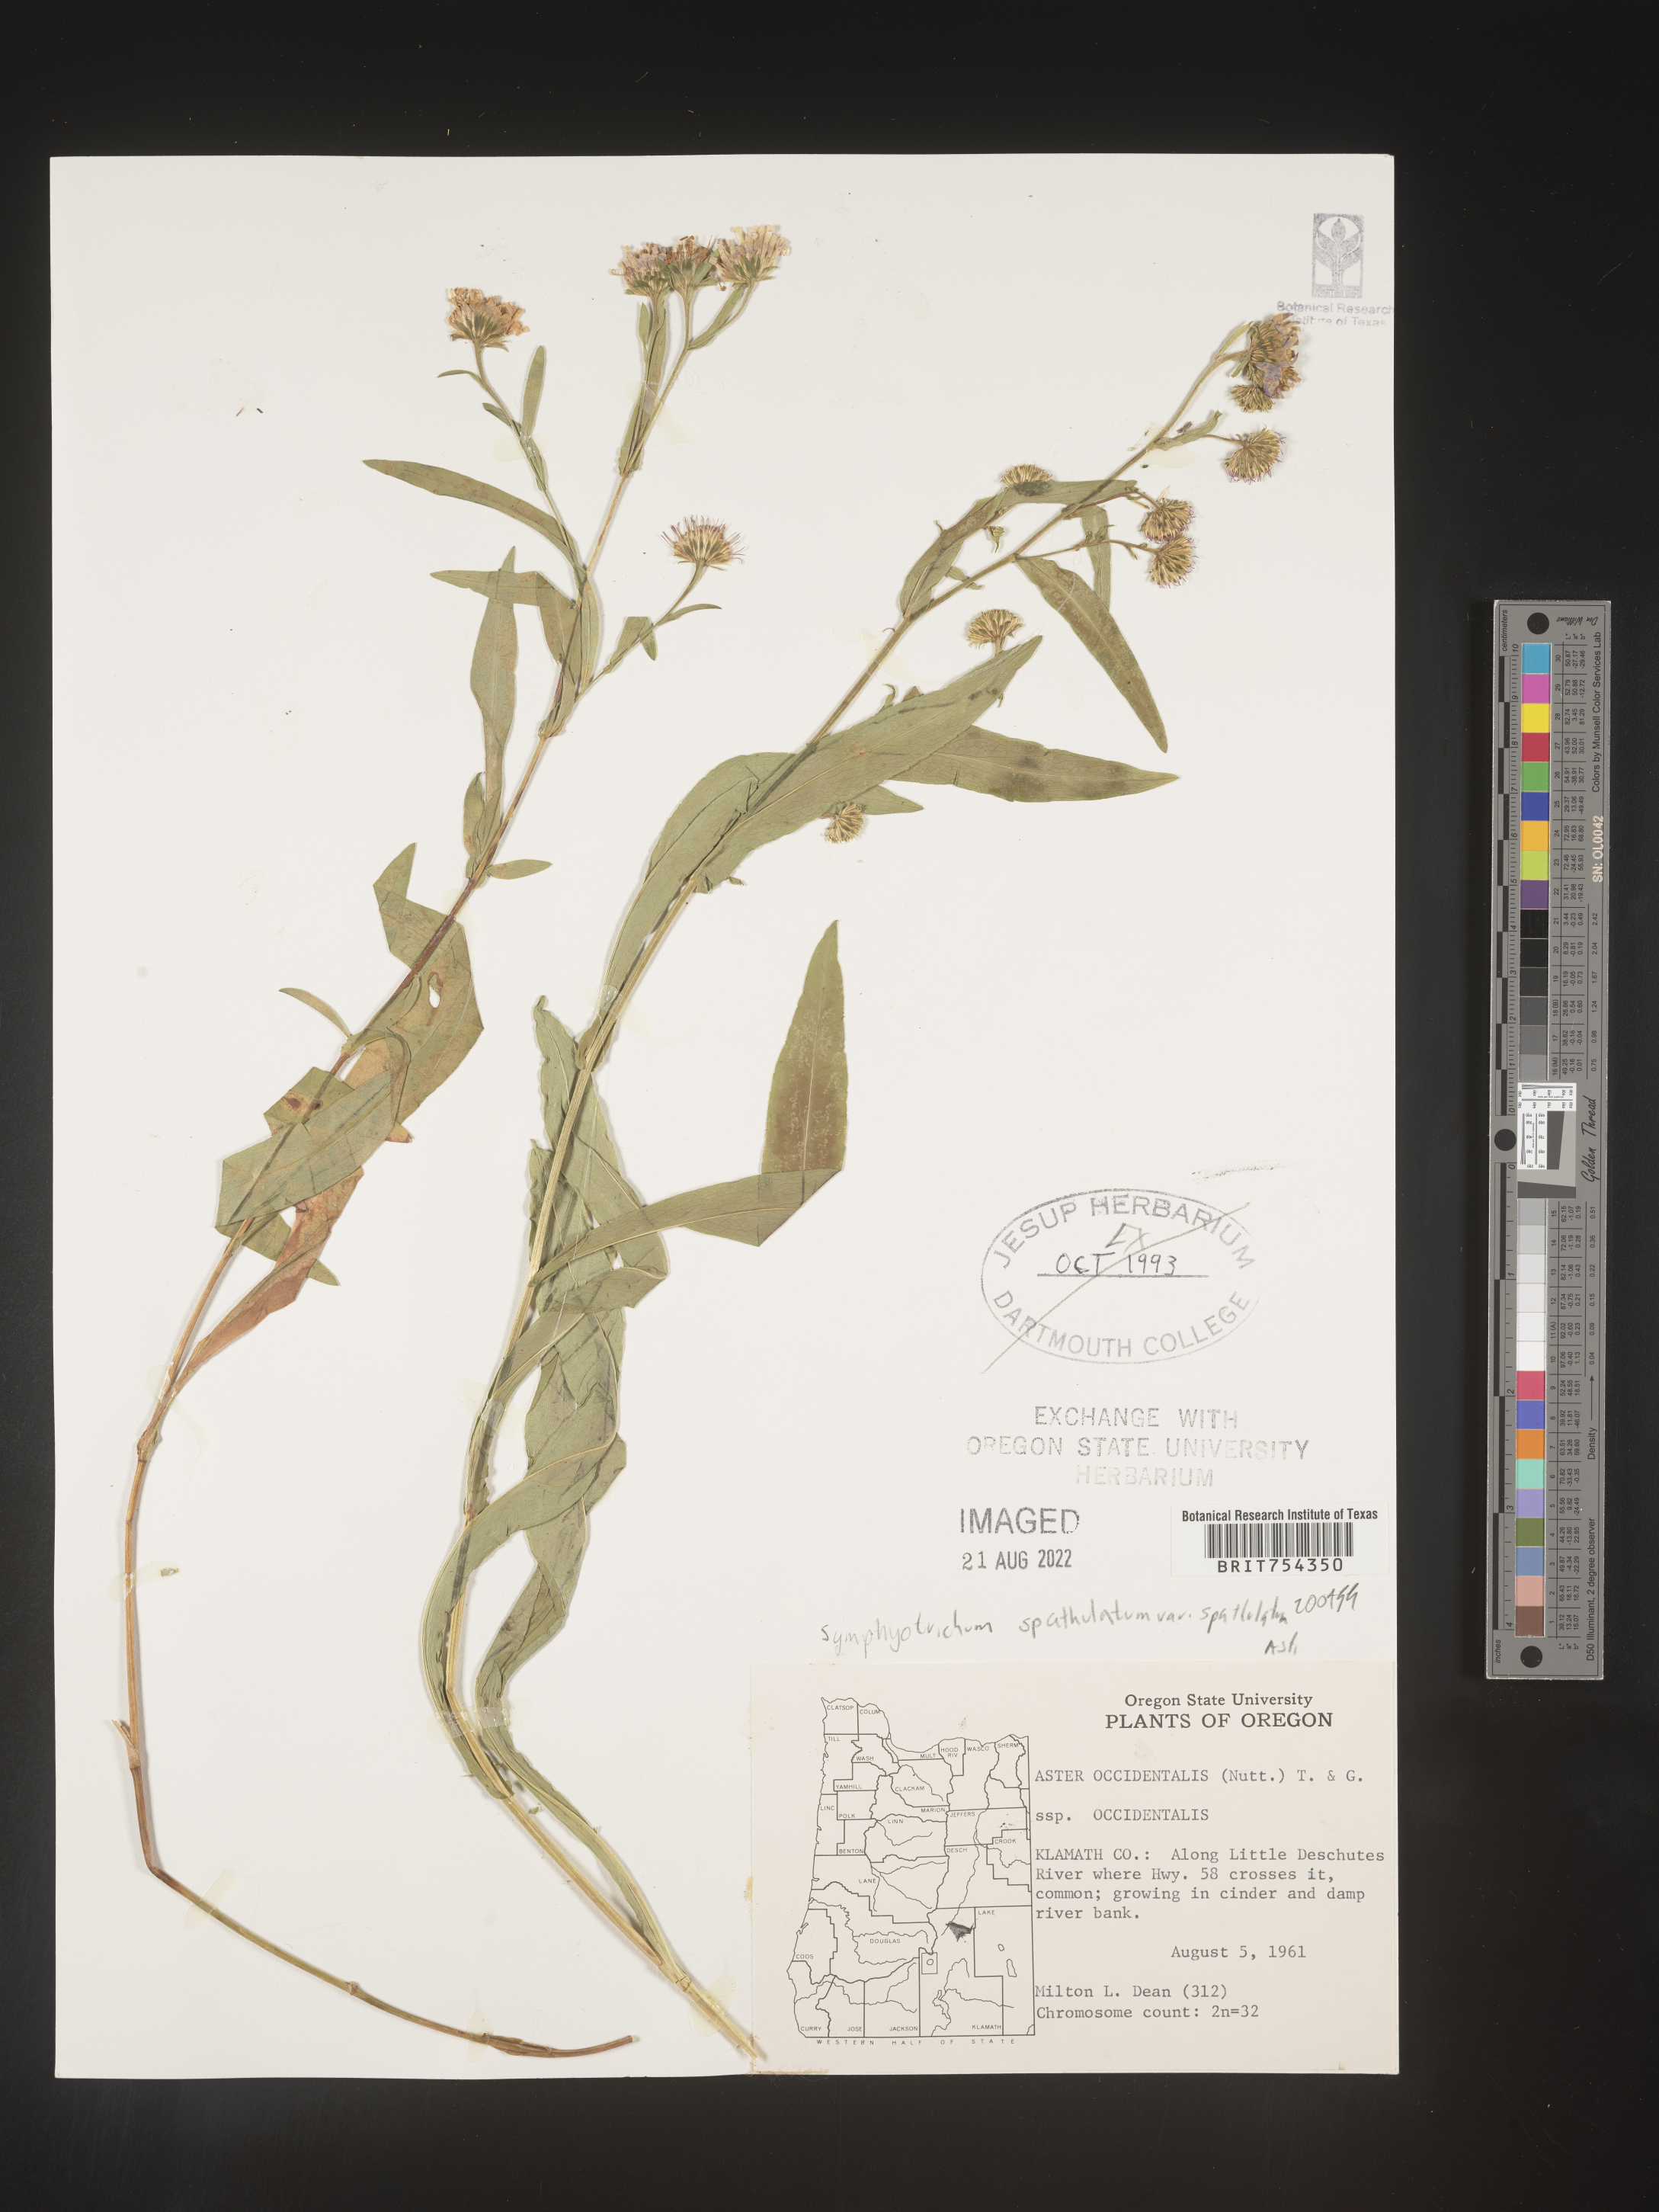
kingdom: Plantae
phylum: Tracheophyta
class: Magnoliopsida
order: Asterales
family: Asteraceae
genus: Symphyotrichum
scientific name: Symphyotrichum spathulatum
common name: Western mountain aster
